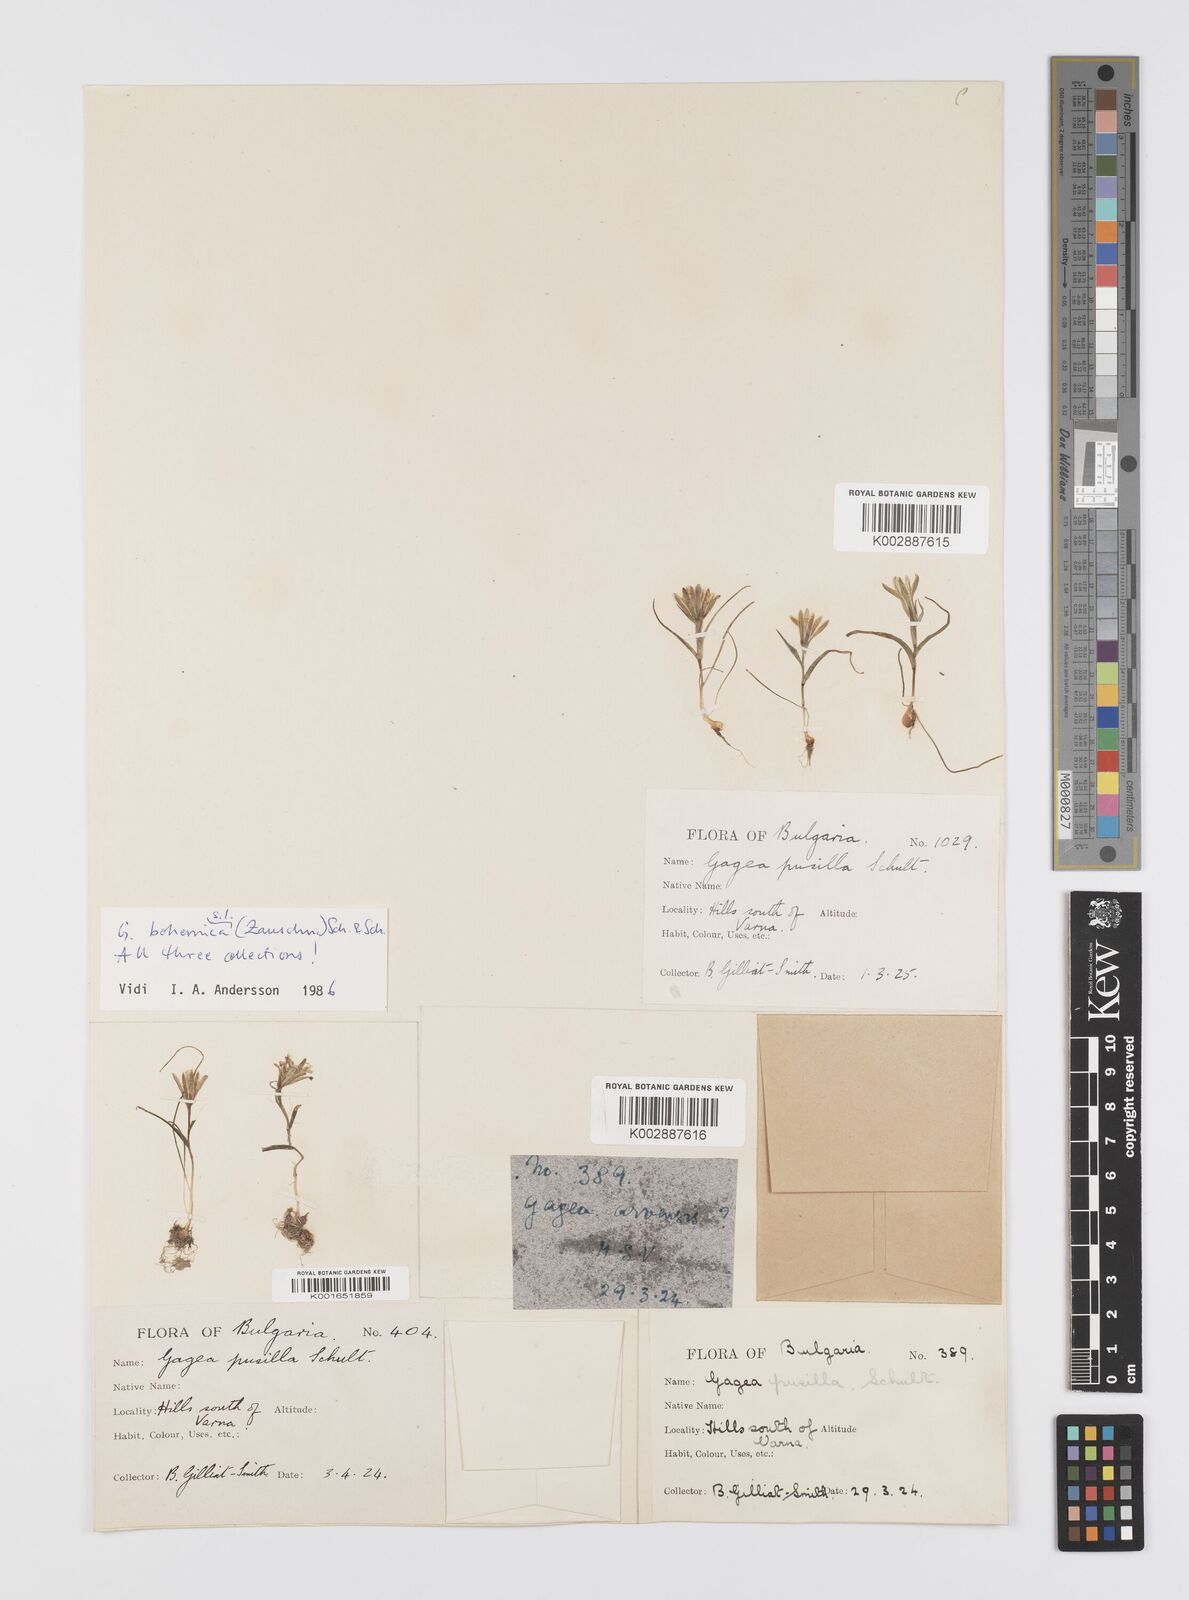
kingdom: Plantae
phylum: Tracheophyta
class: Liliopsida
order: Liliales
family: Liliaceae
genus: Gagea
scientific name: Gagea pusilla
